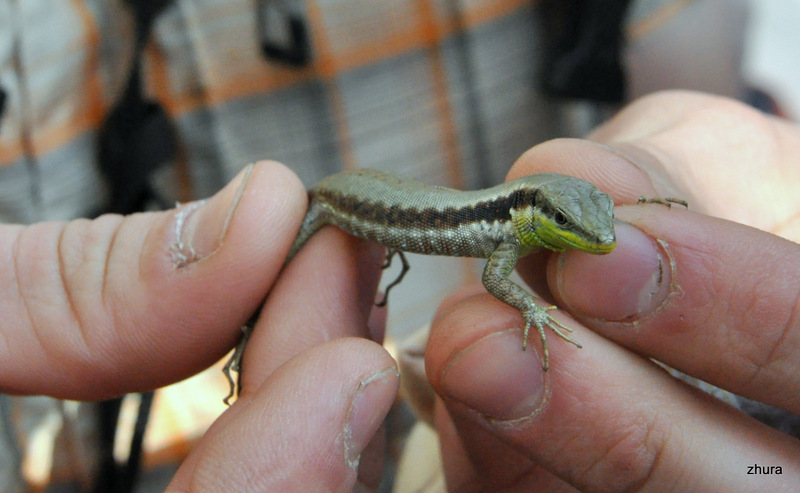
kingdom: Animalia
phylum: Chordata
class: Squamata
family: Lacertidae
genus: Phoenicolacerta
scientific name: Phoenicolacerta laevis
